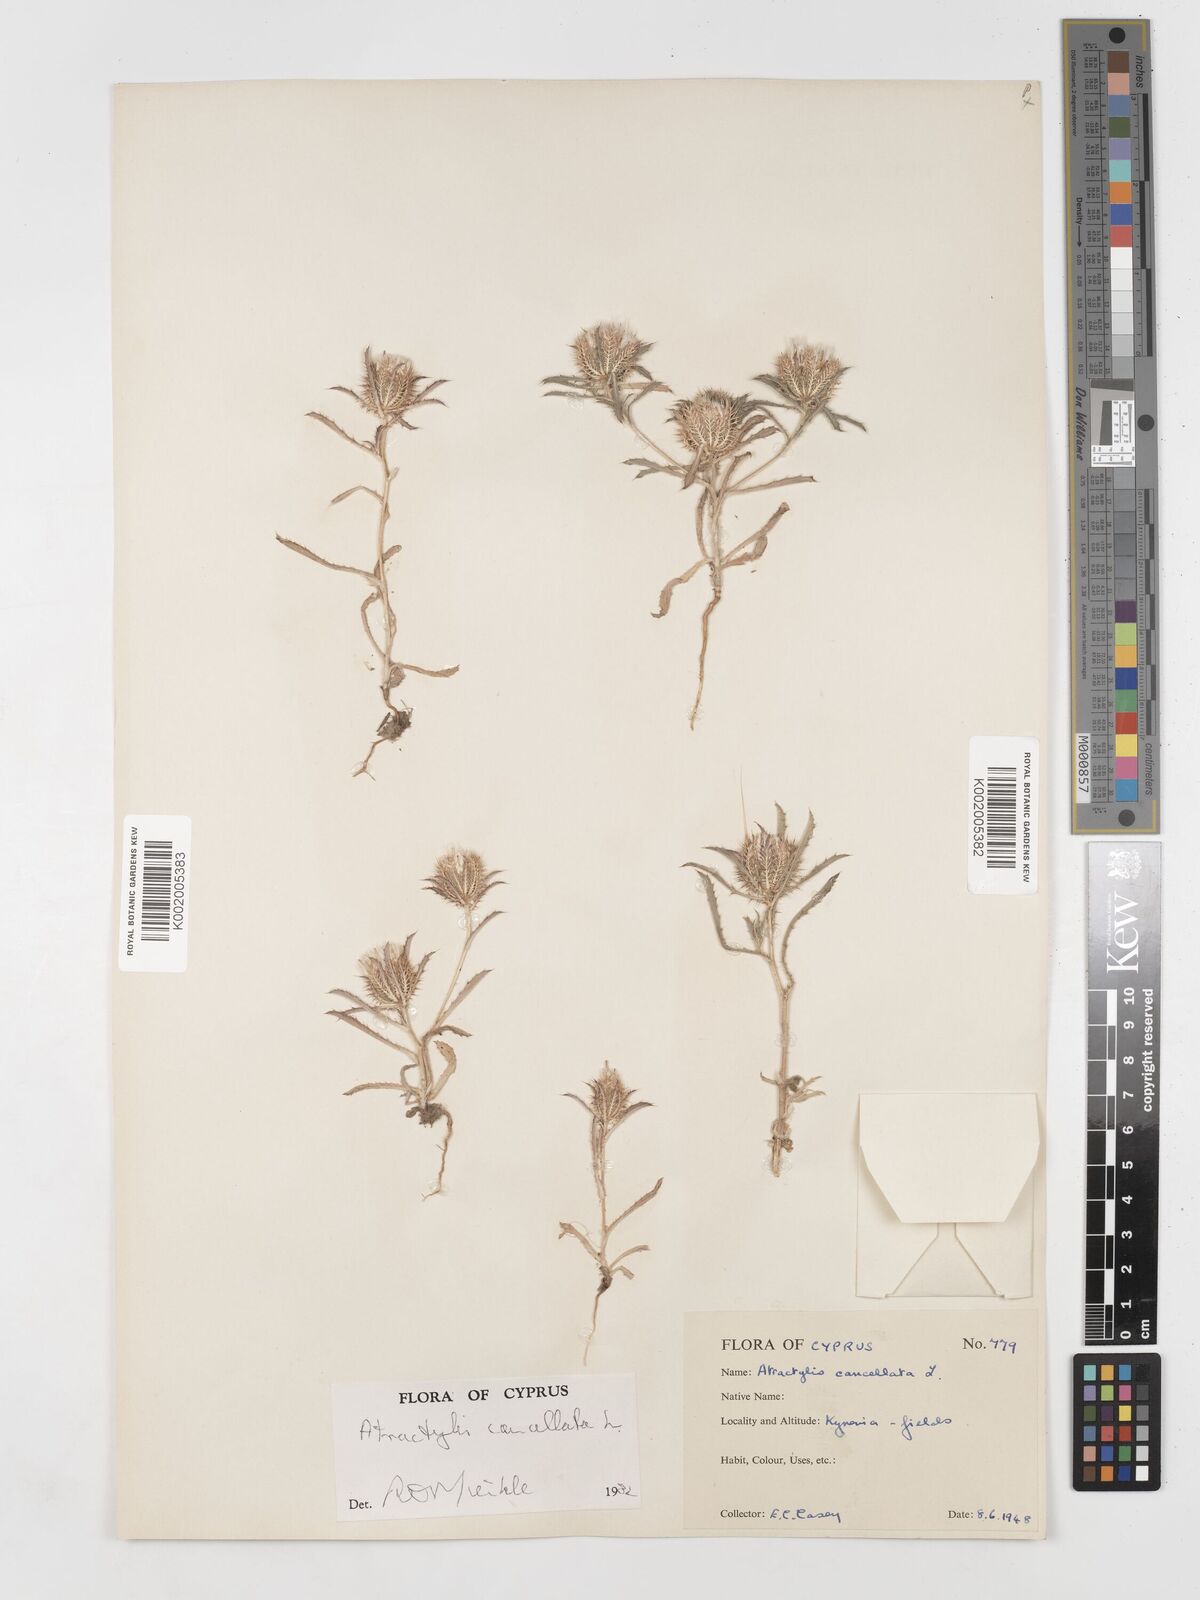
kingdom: Plantae
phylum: Tracheophyta
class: Magnoliopsida
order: Asterales
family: Asteraceae
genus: Atractylis
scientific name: Atractylis cancellata
